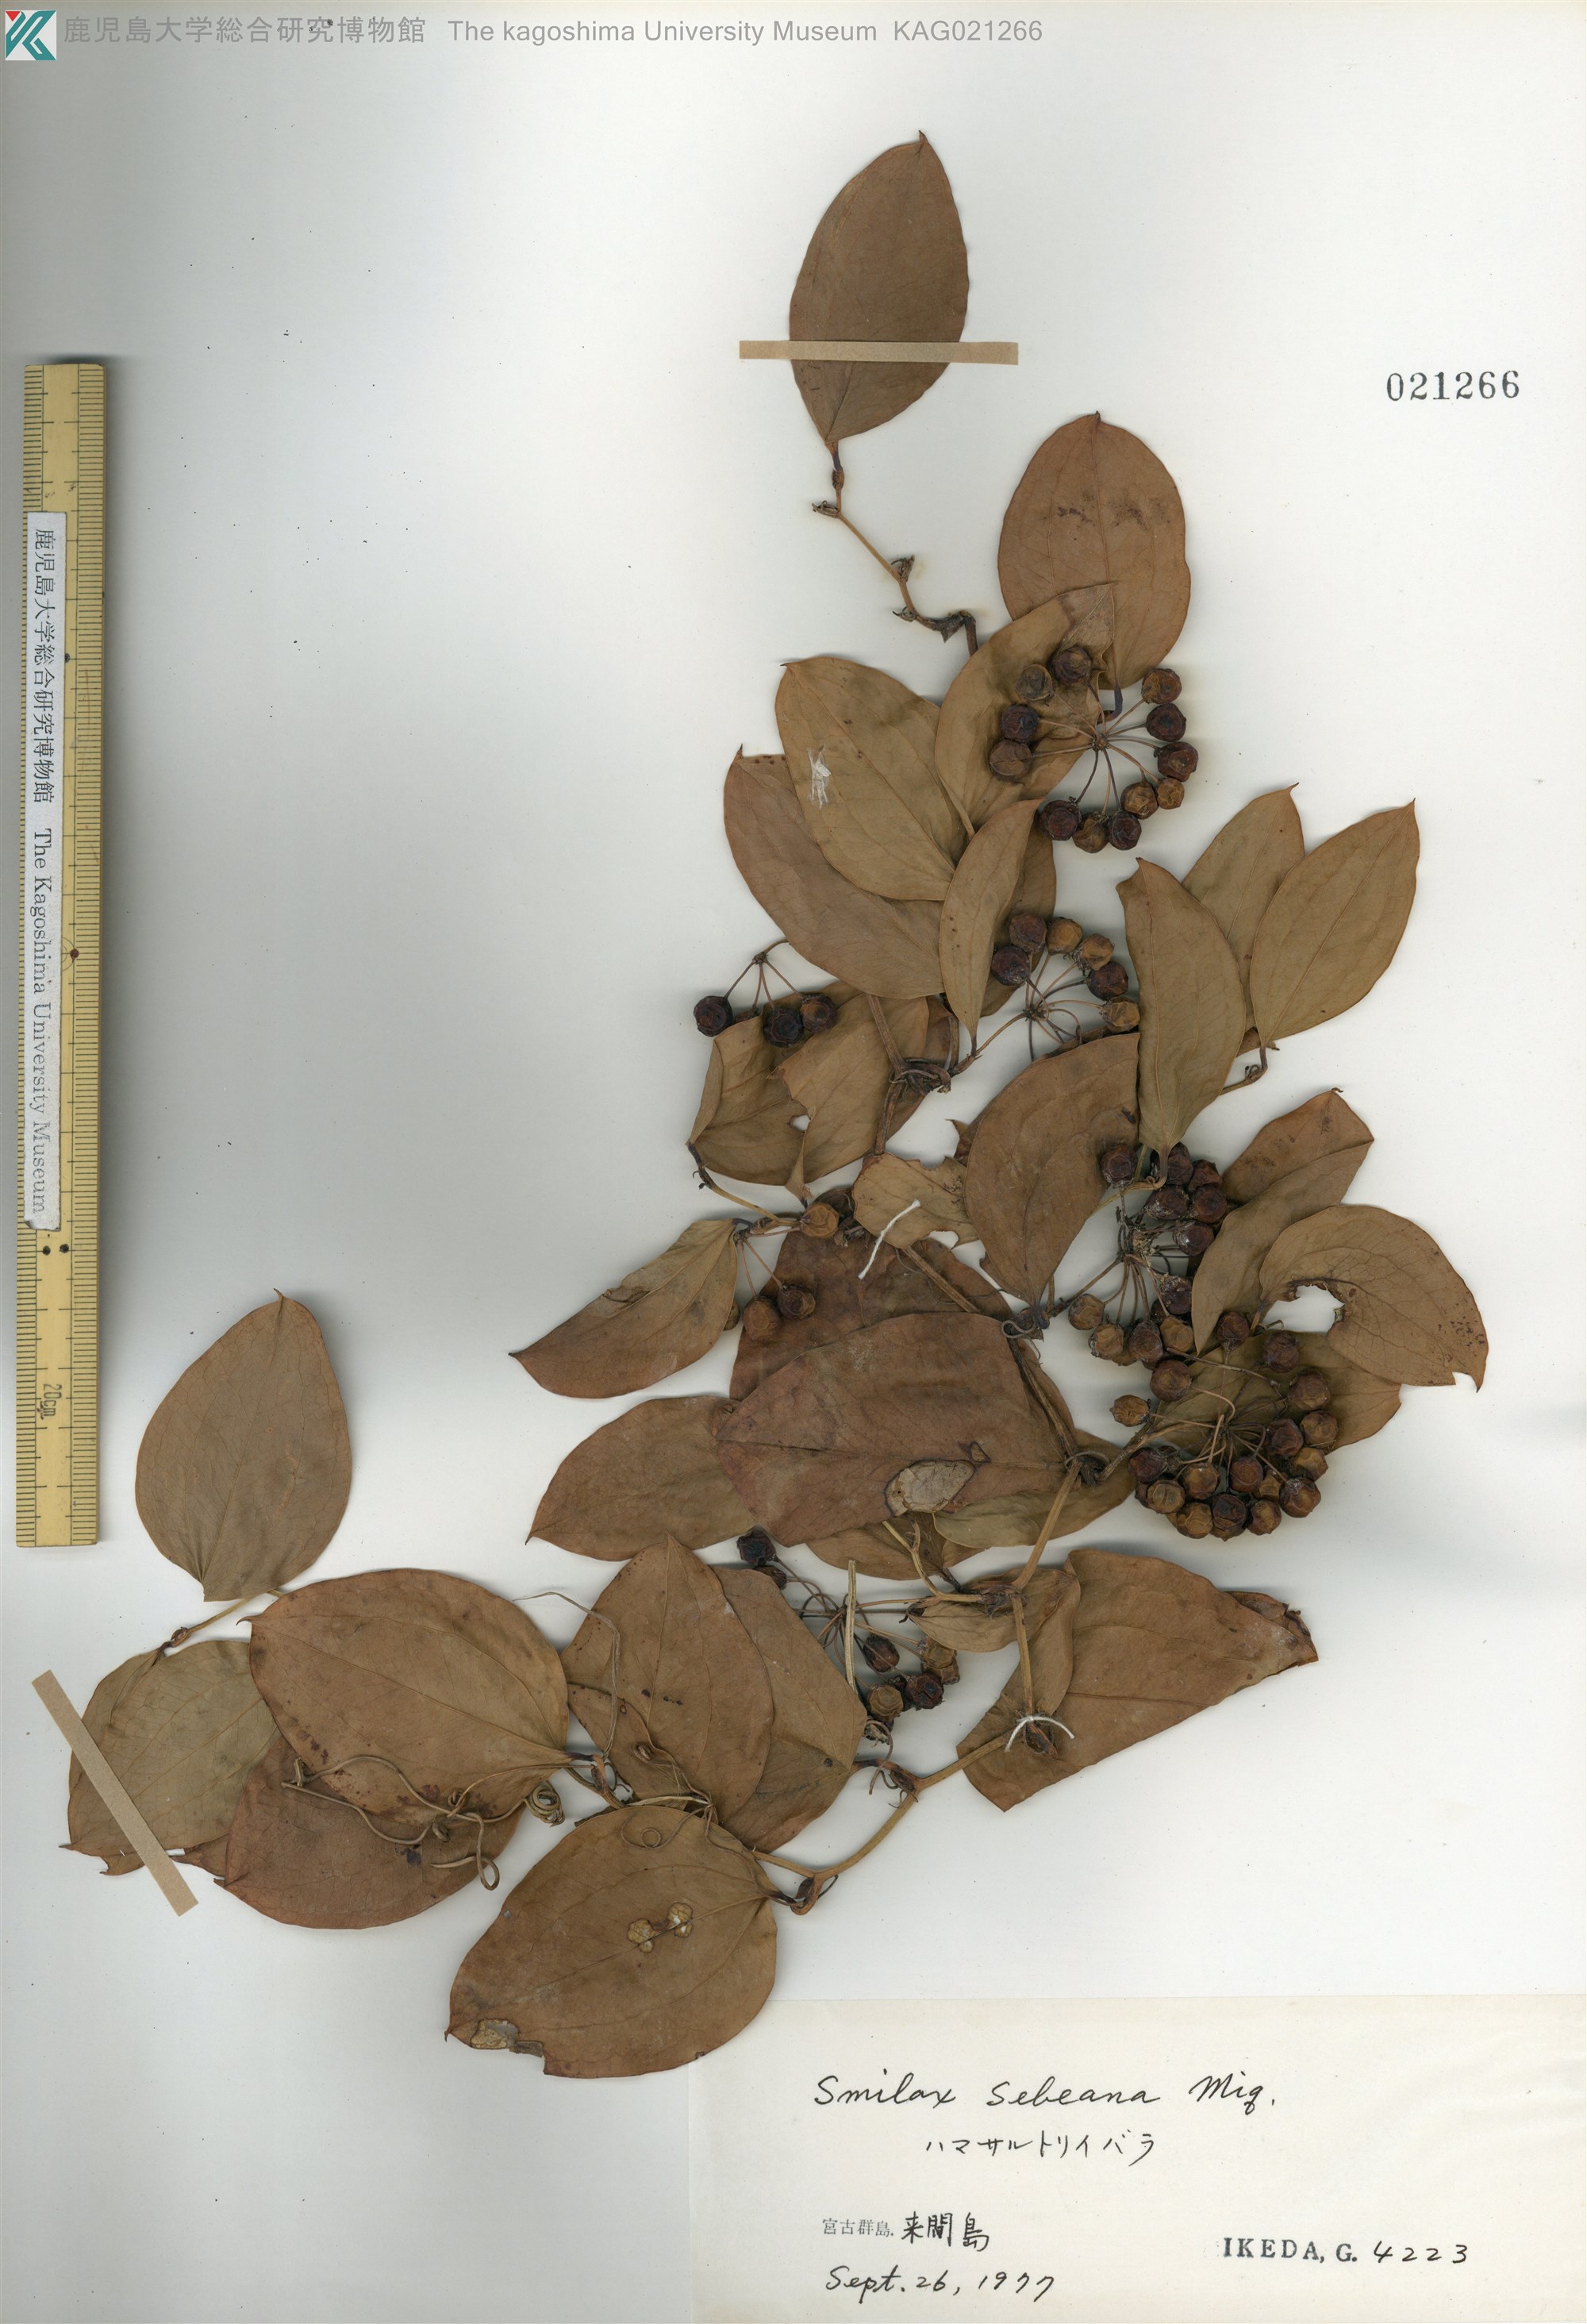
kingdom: Plantae
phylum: Tracheophyta
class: Liliopsida
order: Liliales
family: Smilacaceae
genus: Smilax
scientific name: Smilax sebeana
